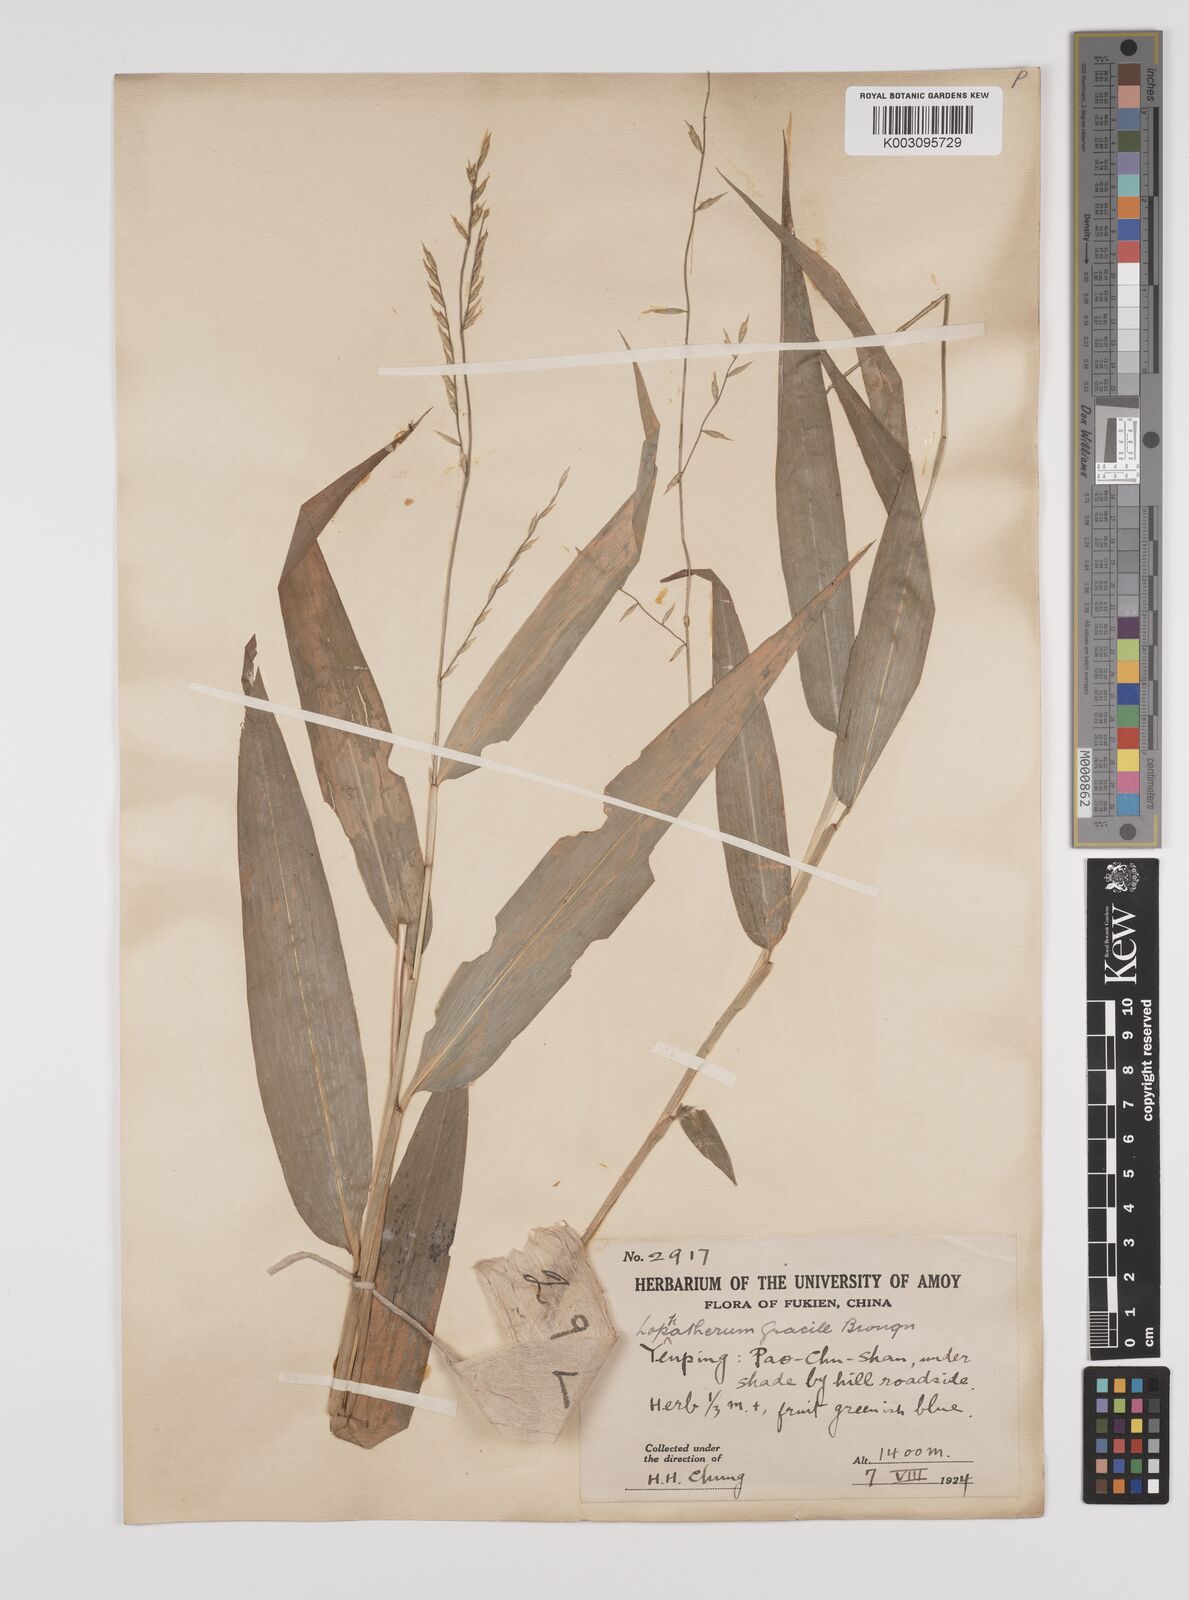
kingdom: Plantae
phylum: Tracheophyta
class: Liliopsida
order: Poales
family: Poaceae
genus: Lophatherum
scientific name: Lophatherum gracile
